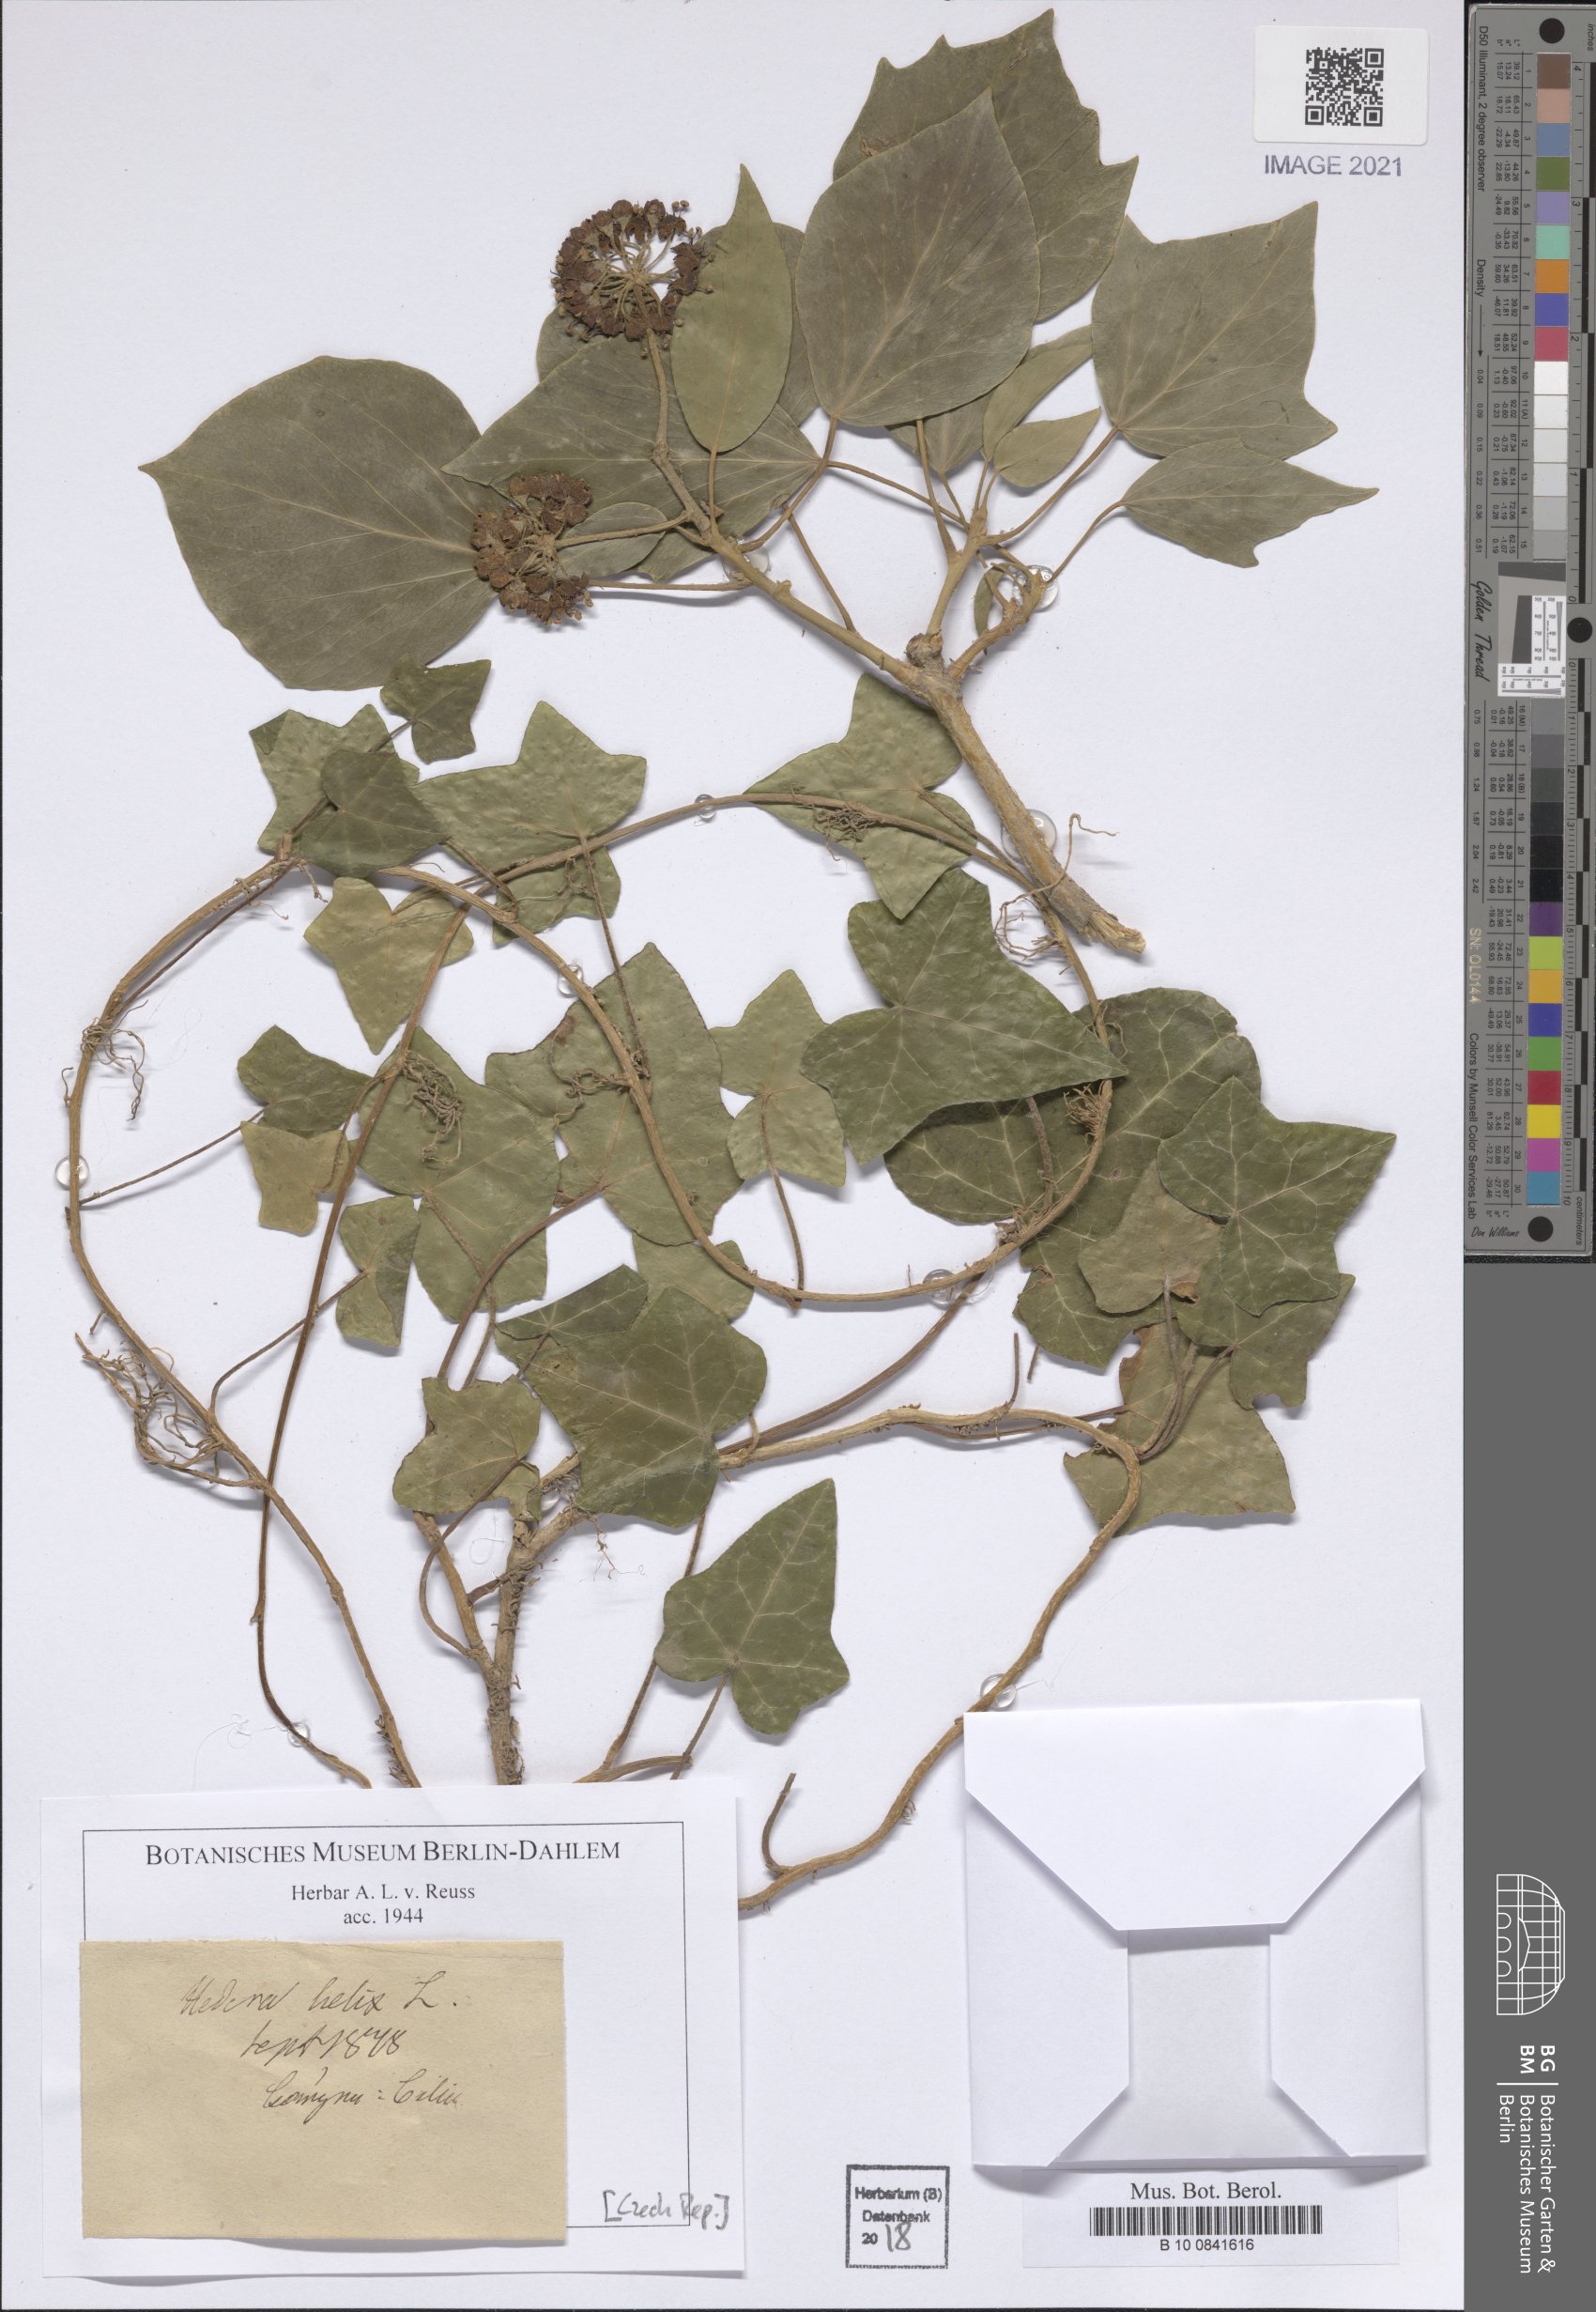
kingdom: Plantae
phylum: Tracheophyta
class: Magnoliopsida
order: Apiales
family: Araliaceae
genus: Hedera
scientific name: Hedera helix
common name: Ivy
